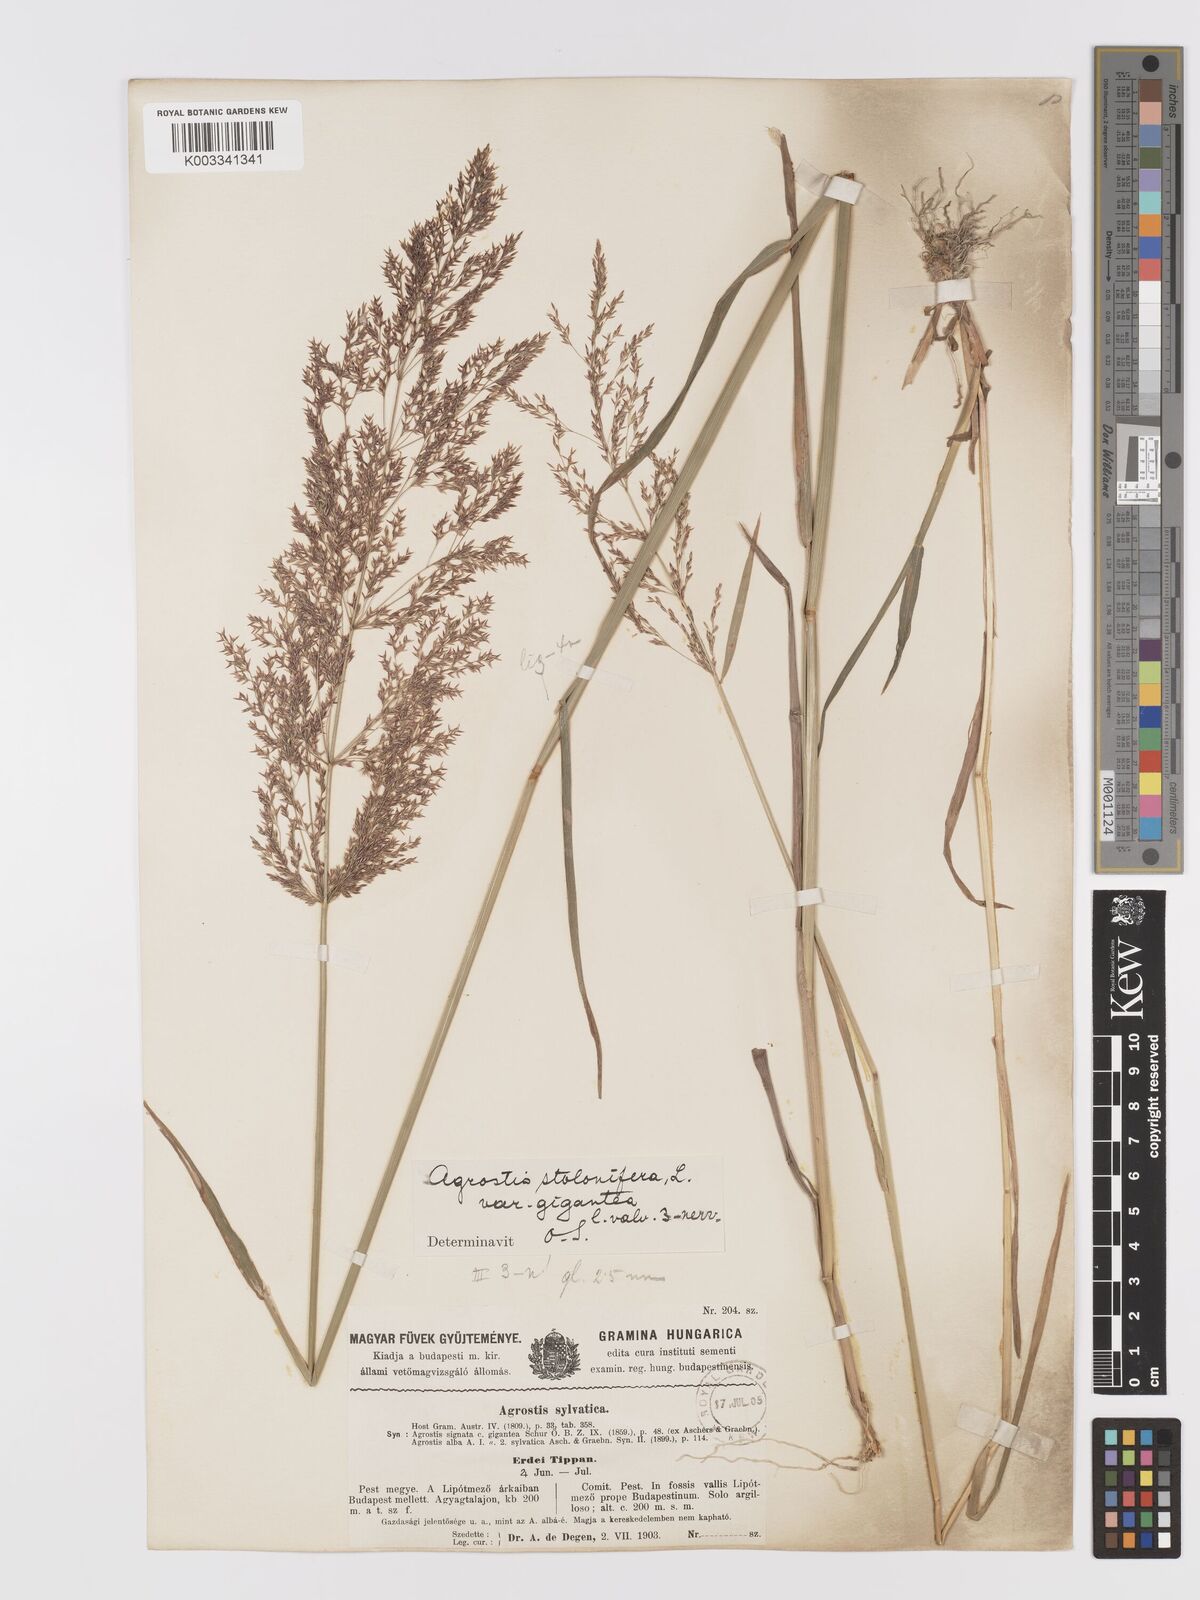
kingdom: Plantae
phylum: Tracheophyta
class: Liliopsida
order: Poales
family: Poaceae
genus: Agrostis
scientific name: Agrostis gigantea
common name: Black bent
